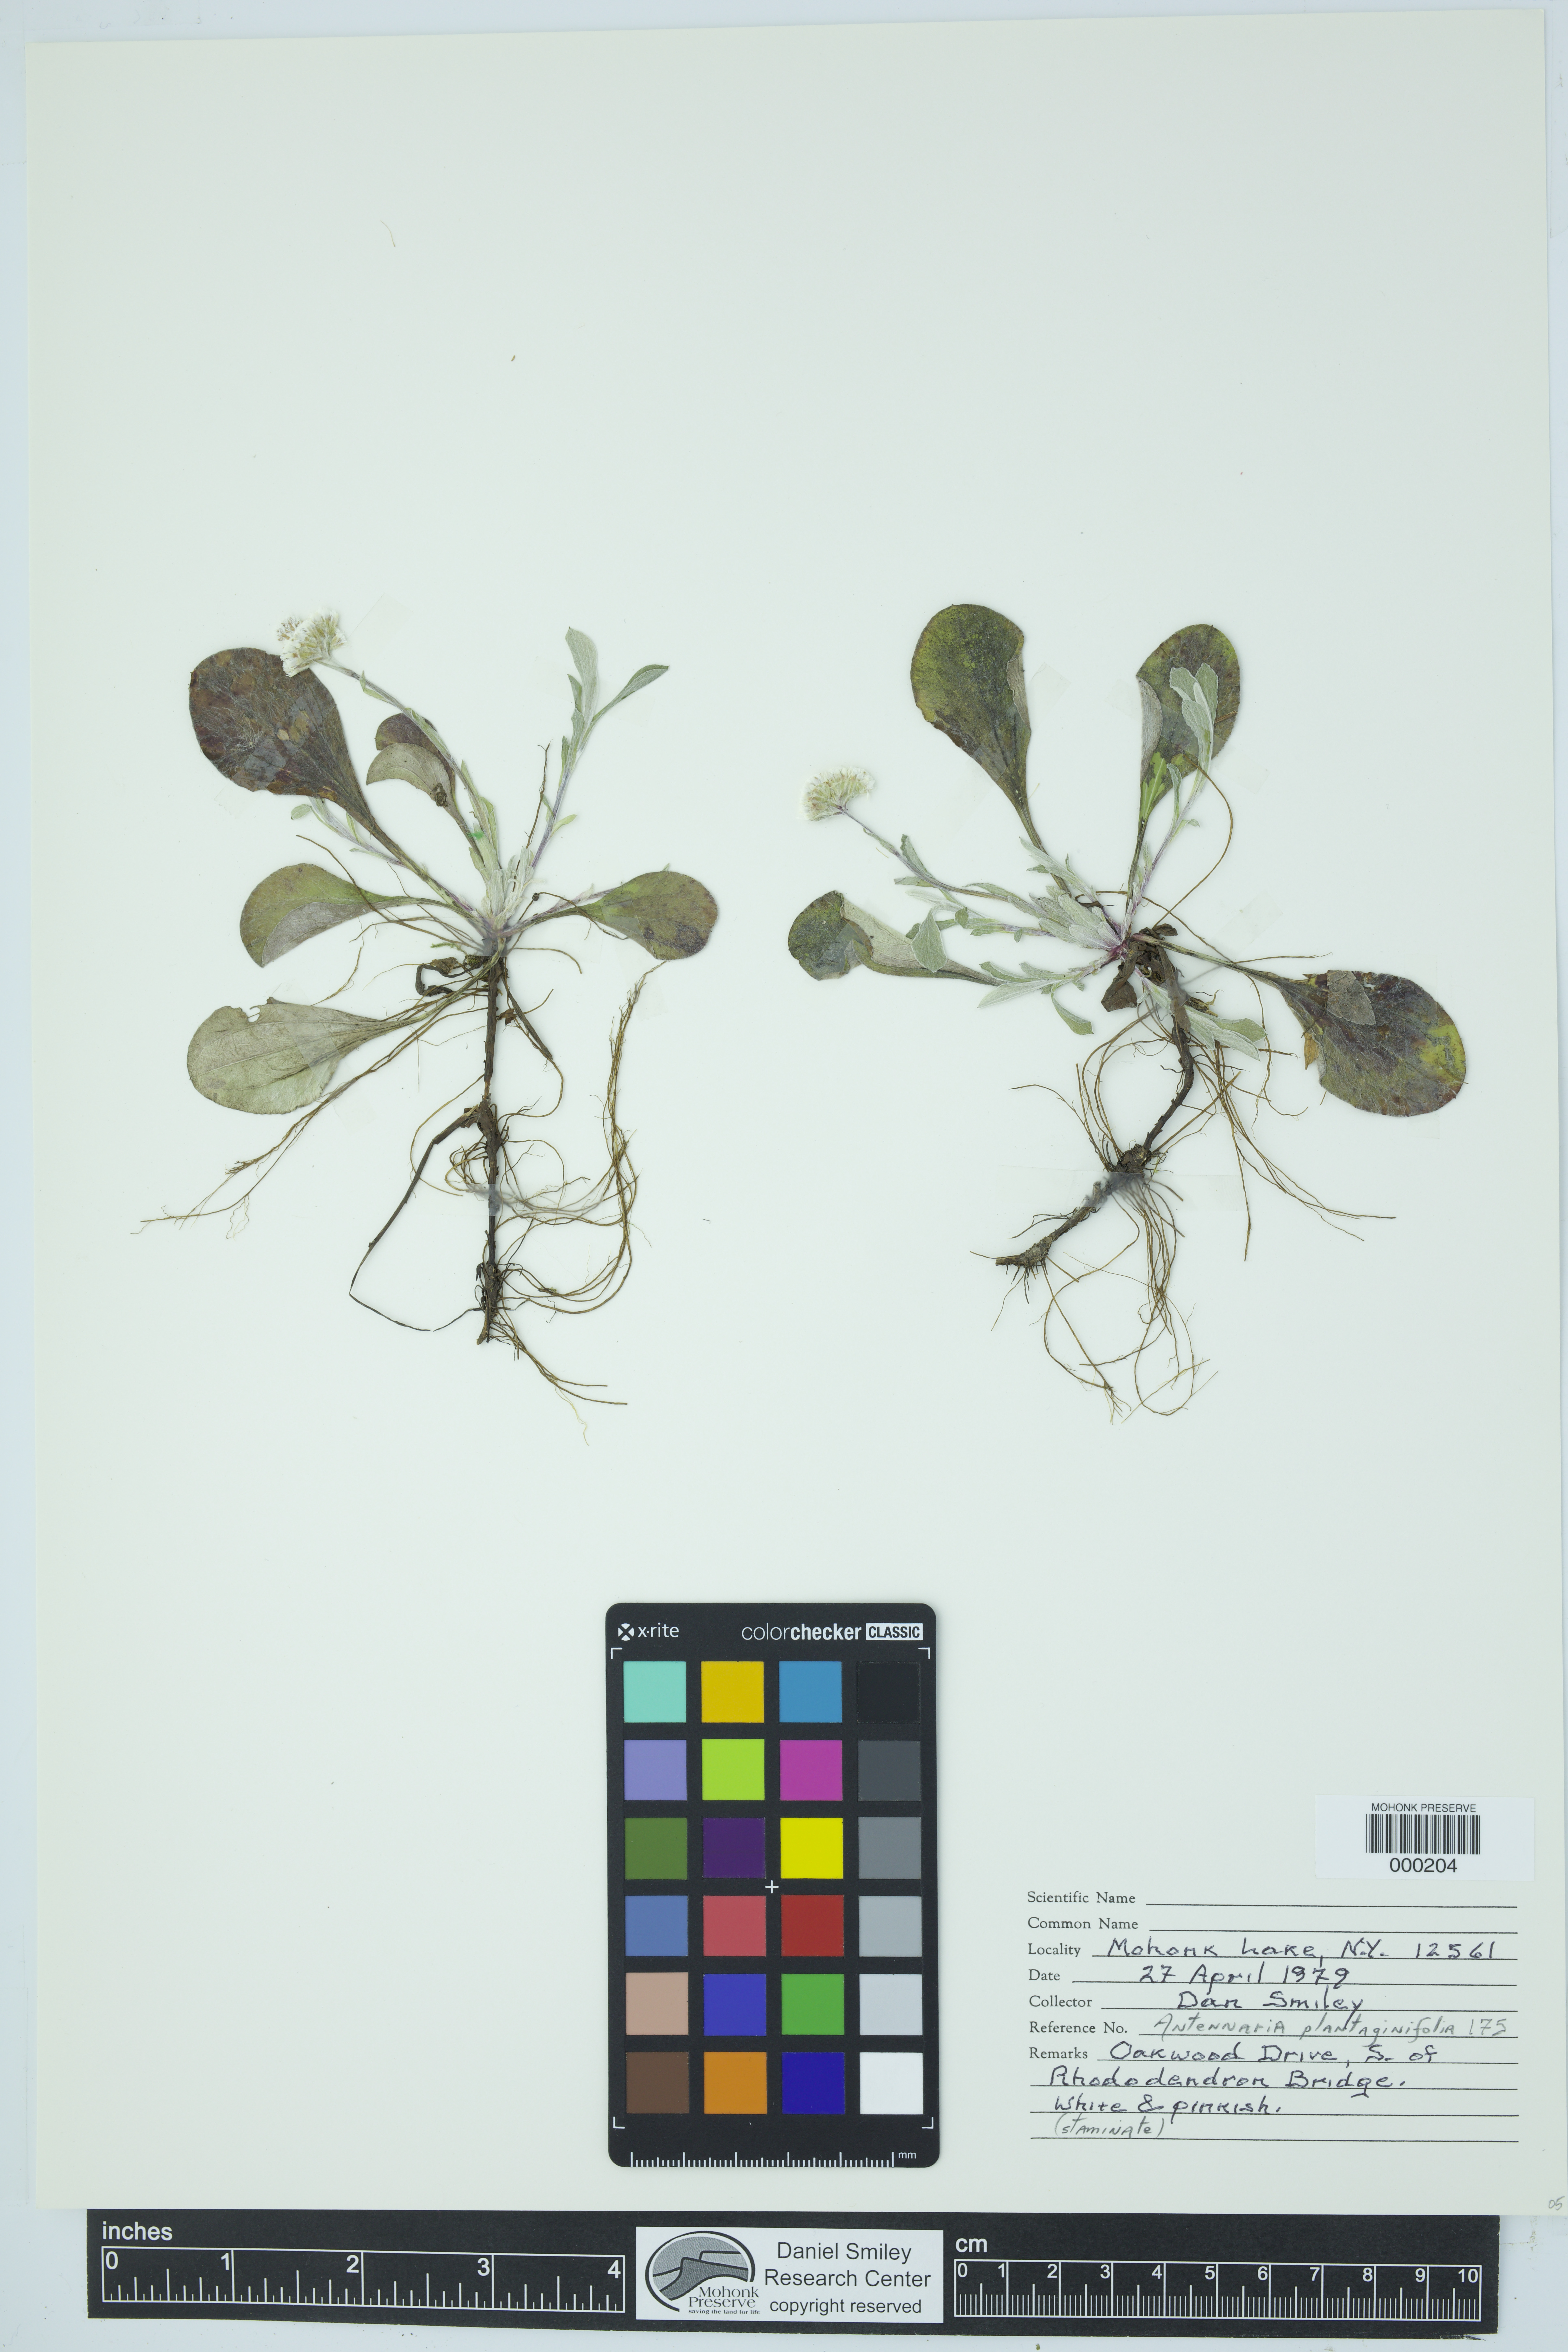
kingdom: Plantae
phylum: Tracheophyta
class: Magnoliopsida
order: Asterales
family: Asteraceae
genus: Antennaria
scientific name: Antennaria plantaginifolia
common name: Plantain-leaved pussytoes
